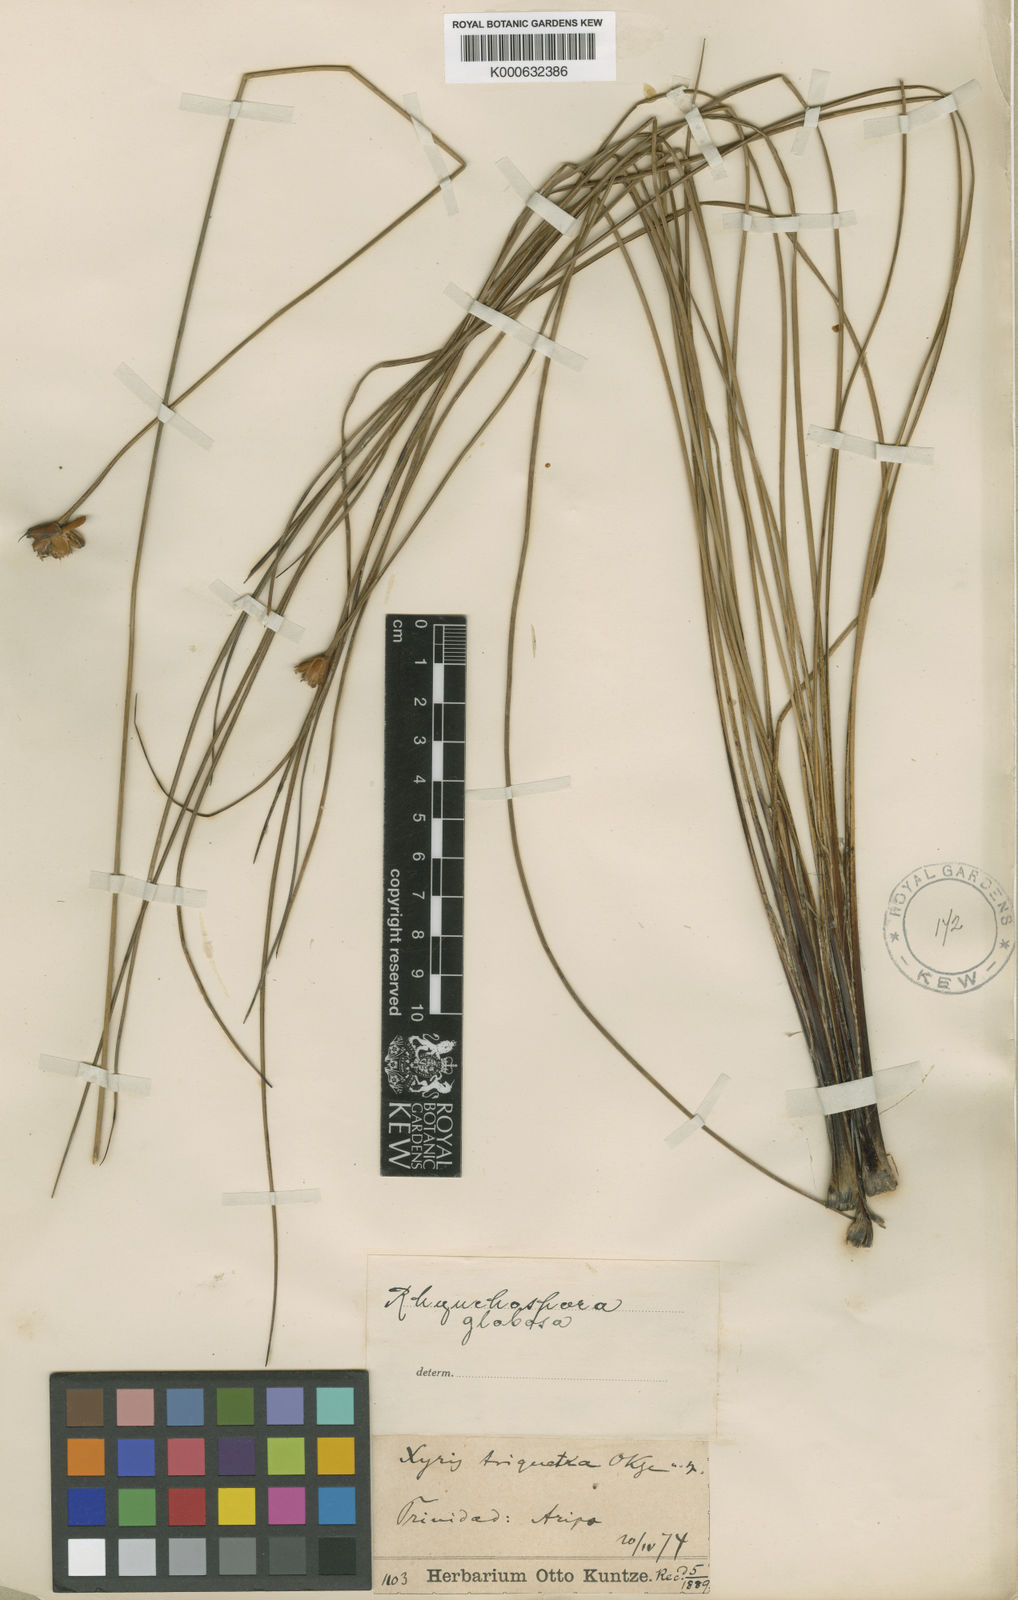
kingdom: Plantae
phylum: Tracheophyta
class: Liliopsida
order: Poales
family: Cyperaceae
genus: Rhynchospora
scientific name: Rhynchospora globosa
